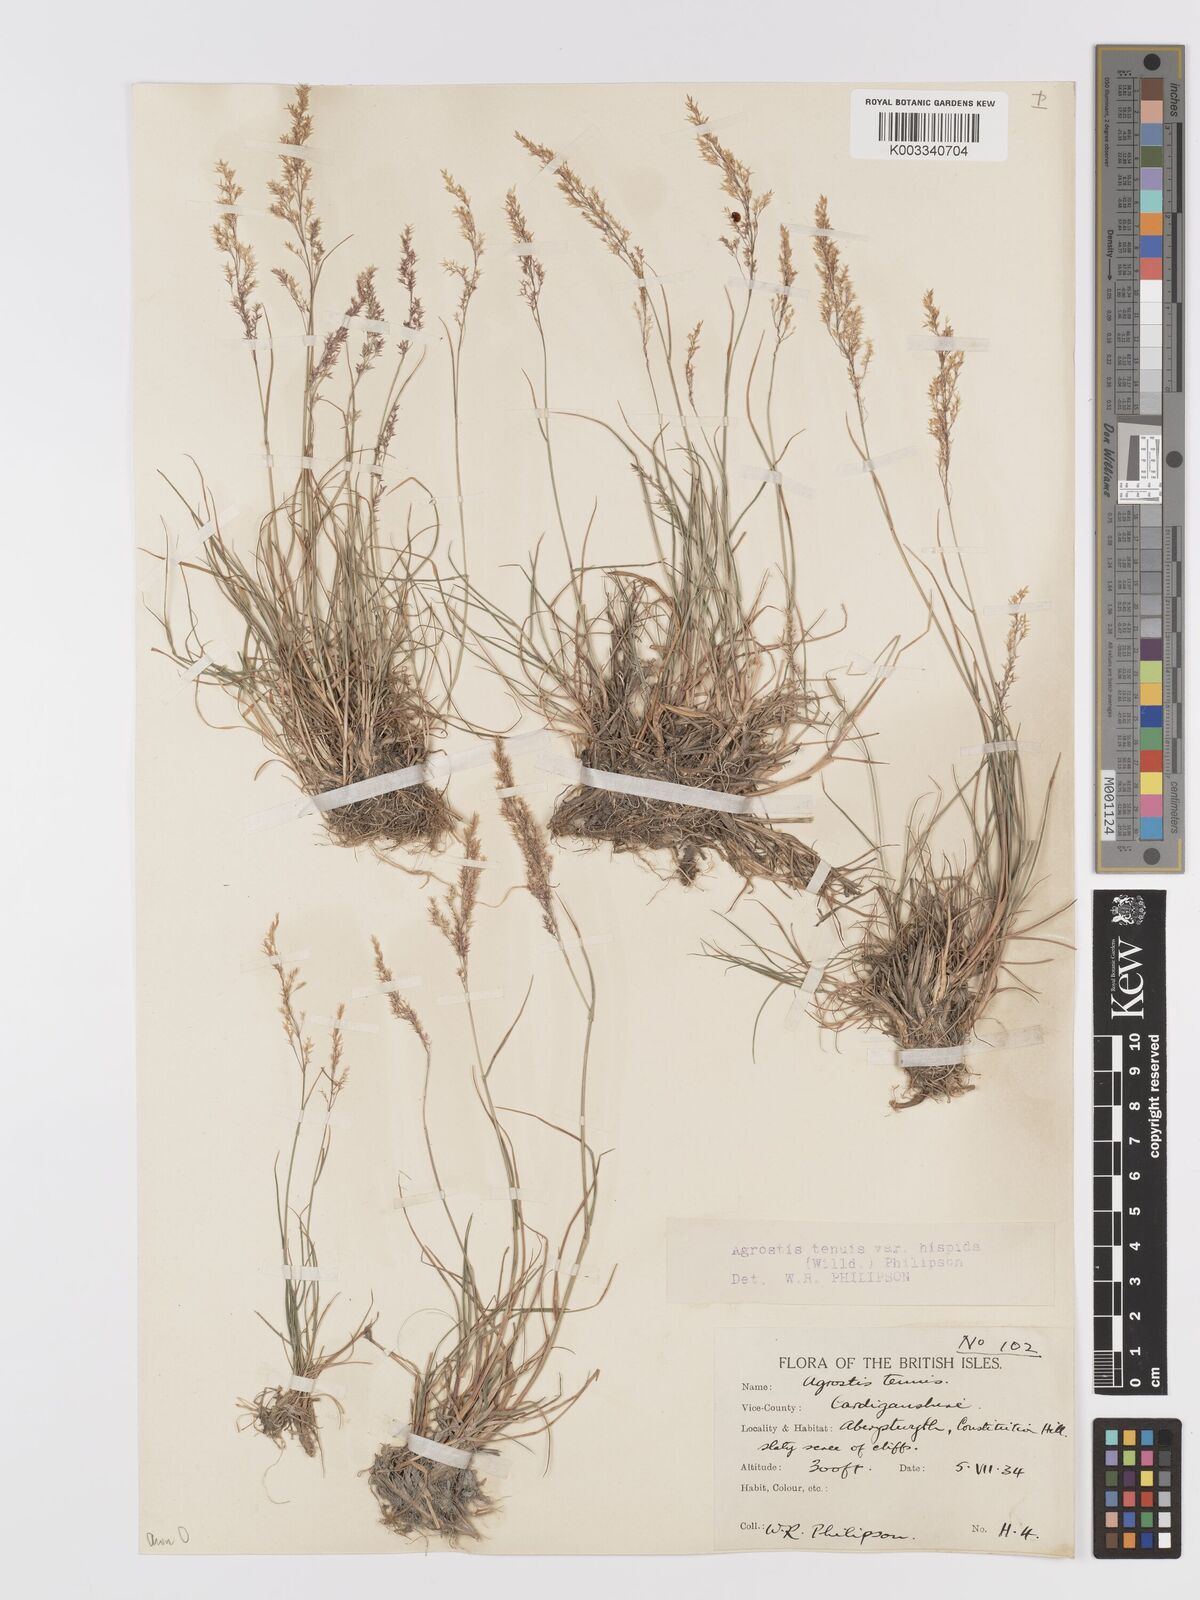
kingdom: Plantae
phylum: Tracheophyta
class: Liliopsida
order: Poales
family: Poaceae
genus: Agrostis
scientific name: Agrostis capillaris
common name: Colonial bentgrass
